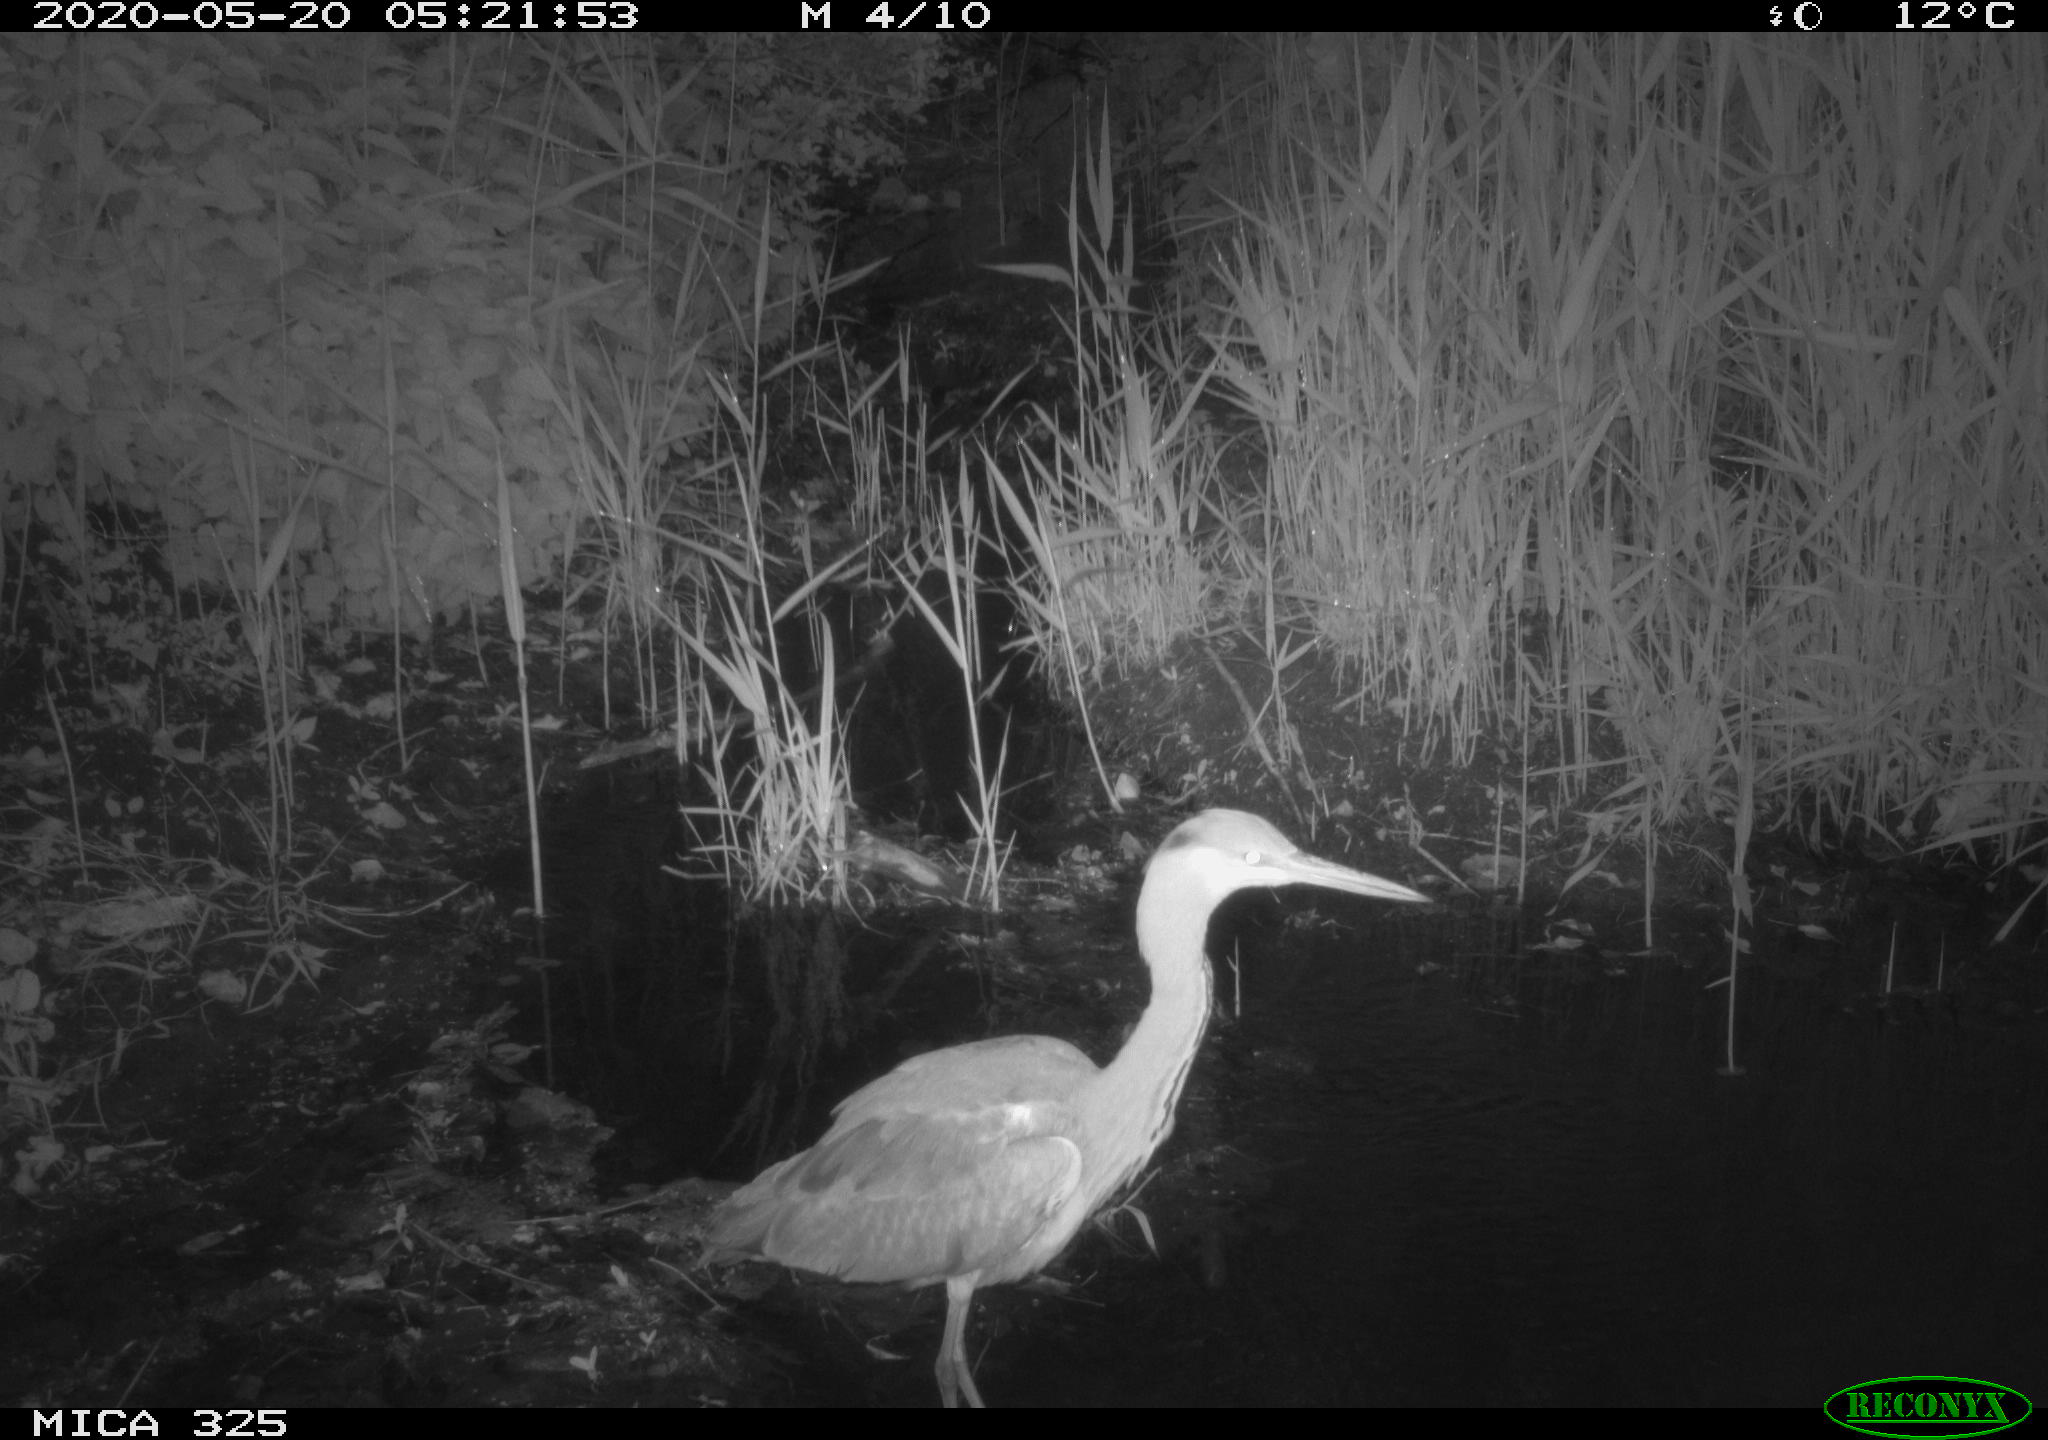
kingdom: Animalia
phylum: Chordata
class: Aves
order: Pelecaniformes
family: Ardeidae
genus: Ardea
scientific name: Ardea cinerea
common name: Grey heron
